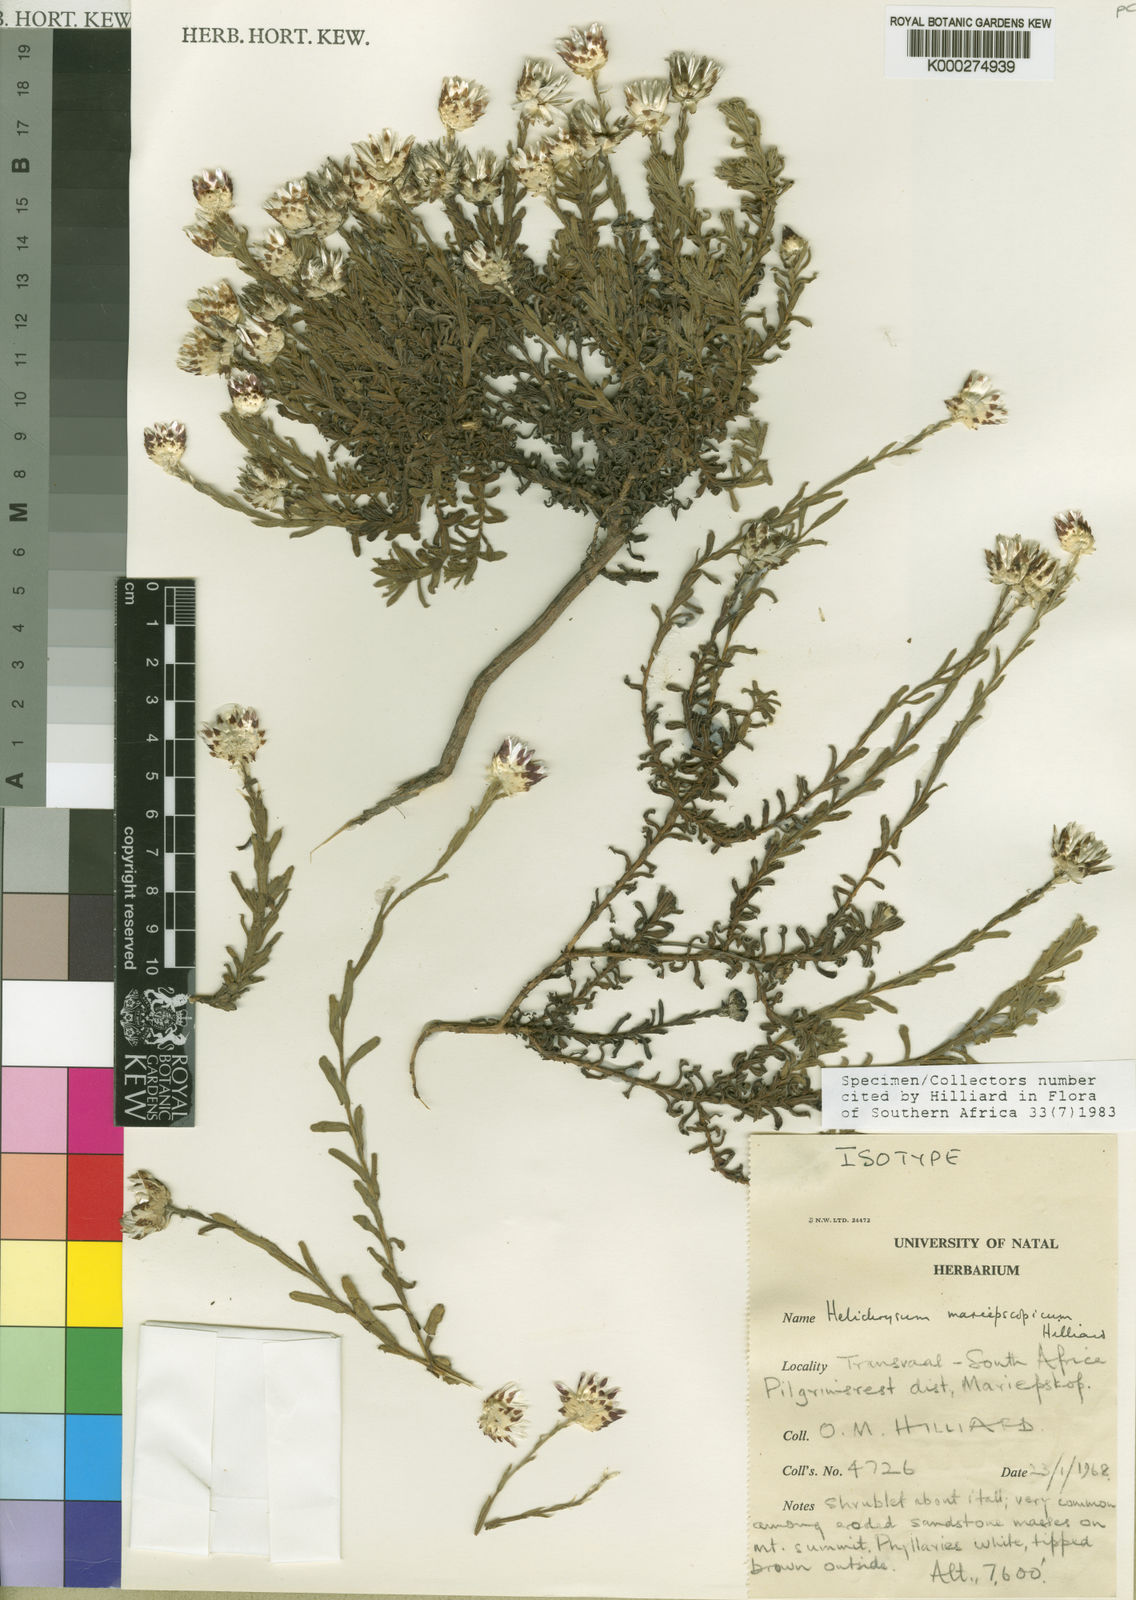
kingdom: Plantae
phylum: Tracheophyta
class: Magnoliopsida
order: Asterales
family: Asteraceae
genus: Helichrysum
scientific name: Helichrysum mariepscopicum
